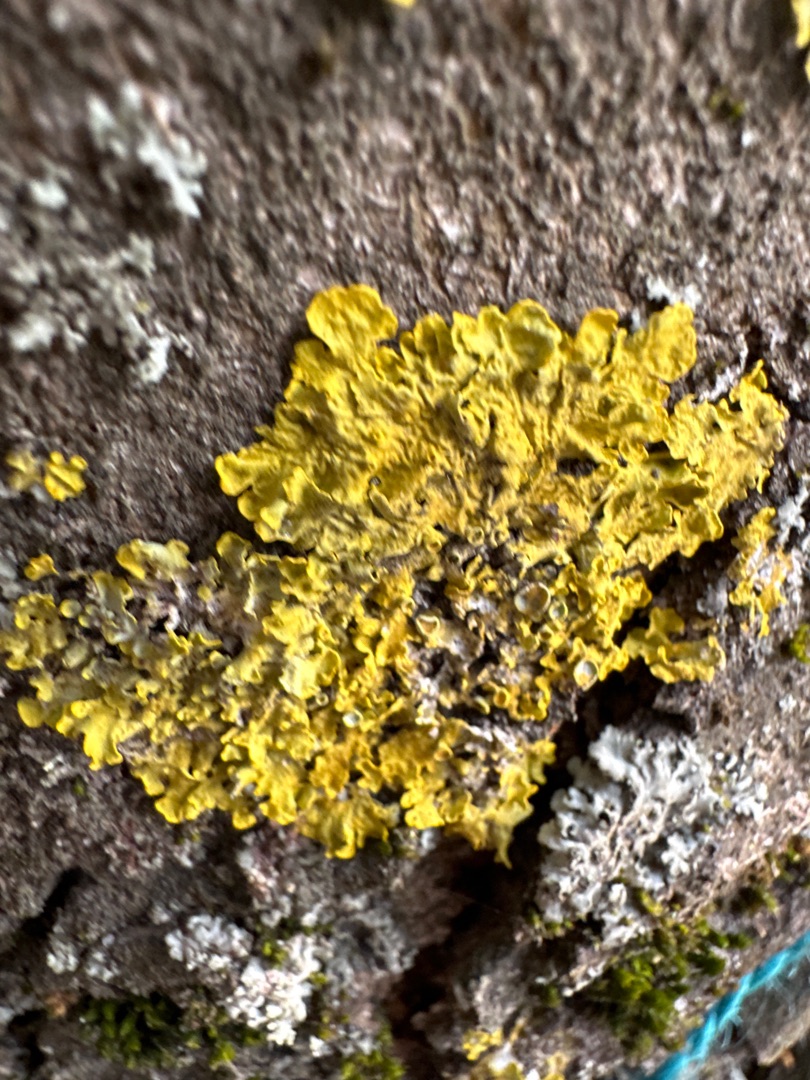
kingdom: Fungi
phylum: Ascomycota
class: Lecanoromycetes
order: Teloschistales
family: Teloschistaceae
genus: Xanthoria
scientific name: Xanthoria parietina
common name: Almindelig væggelav
